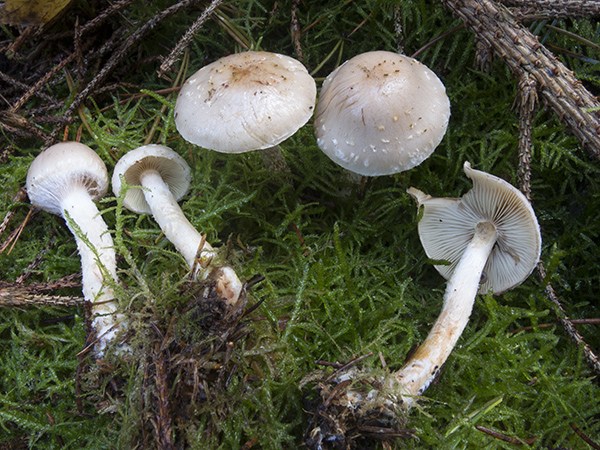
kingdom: Fungi
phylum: Basidiomycota
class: Agaricomycetes
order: Agaricales
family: Strophariaceae
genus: Pholiota
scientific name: Pholiota lenta
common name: løv-skælhat
